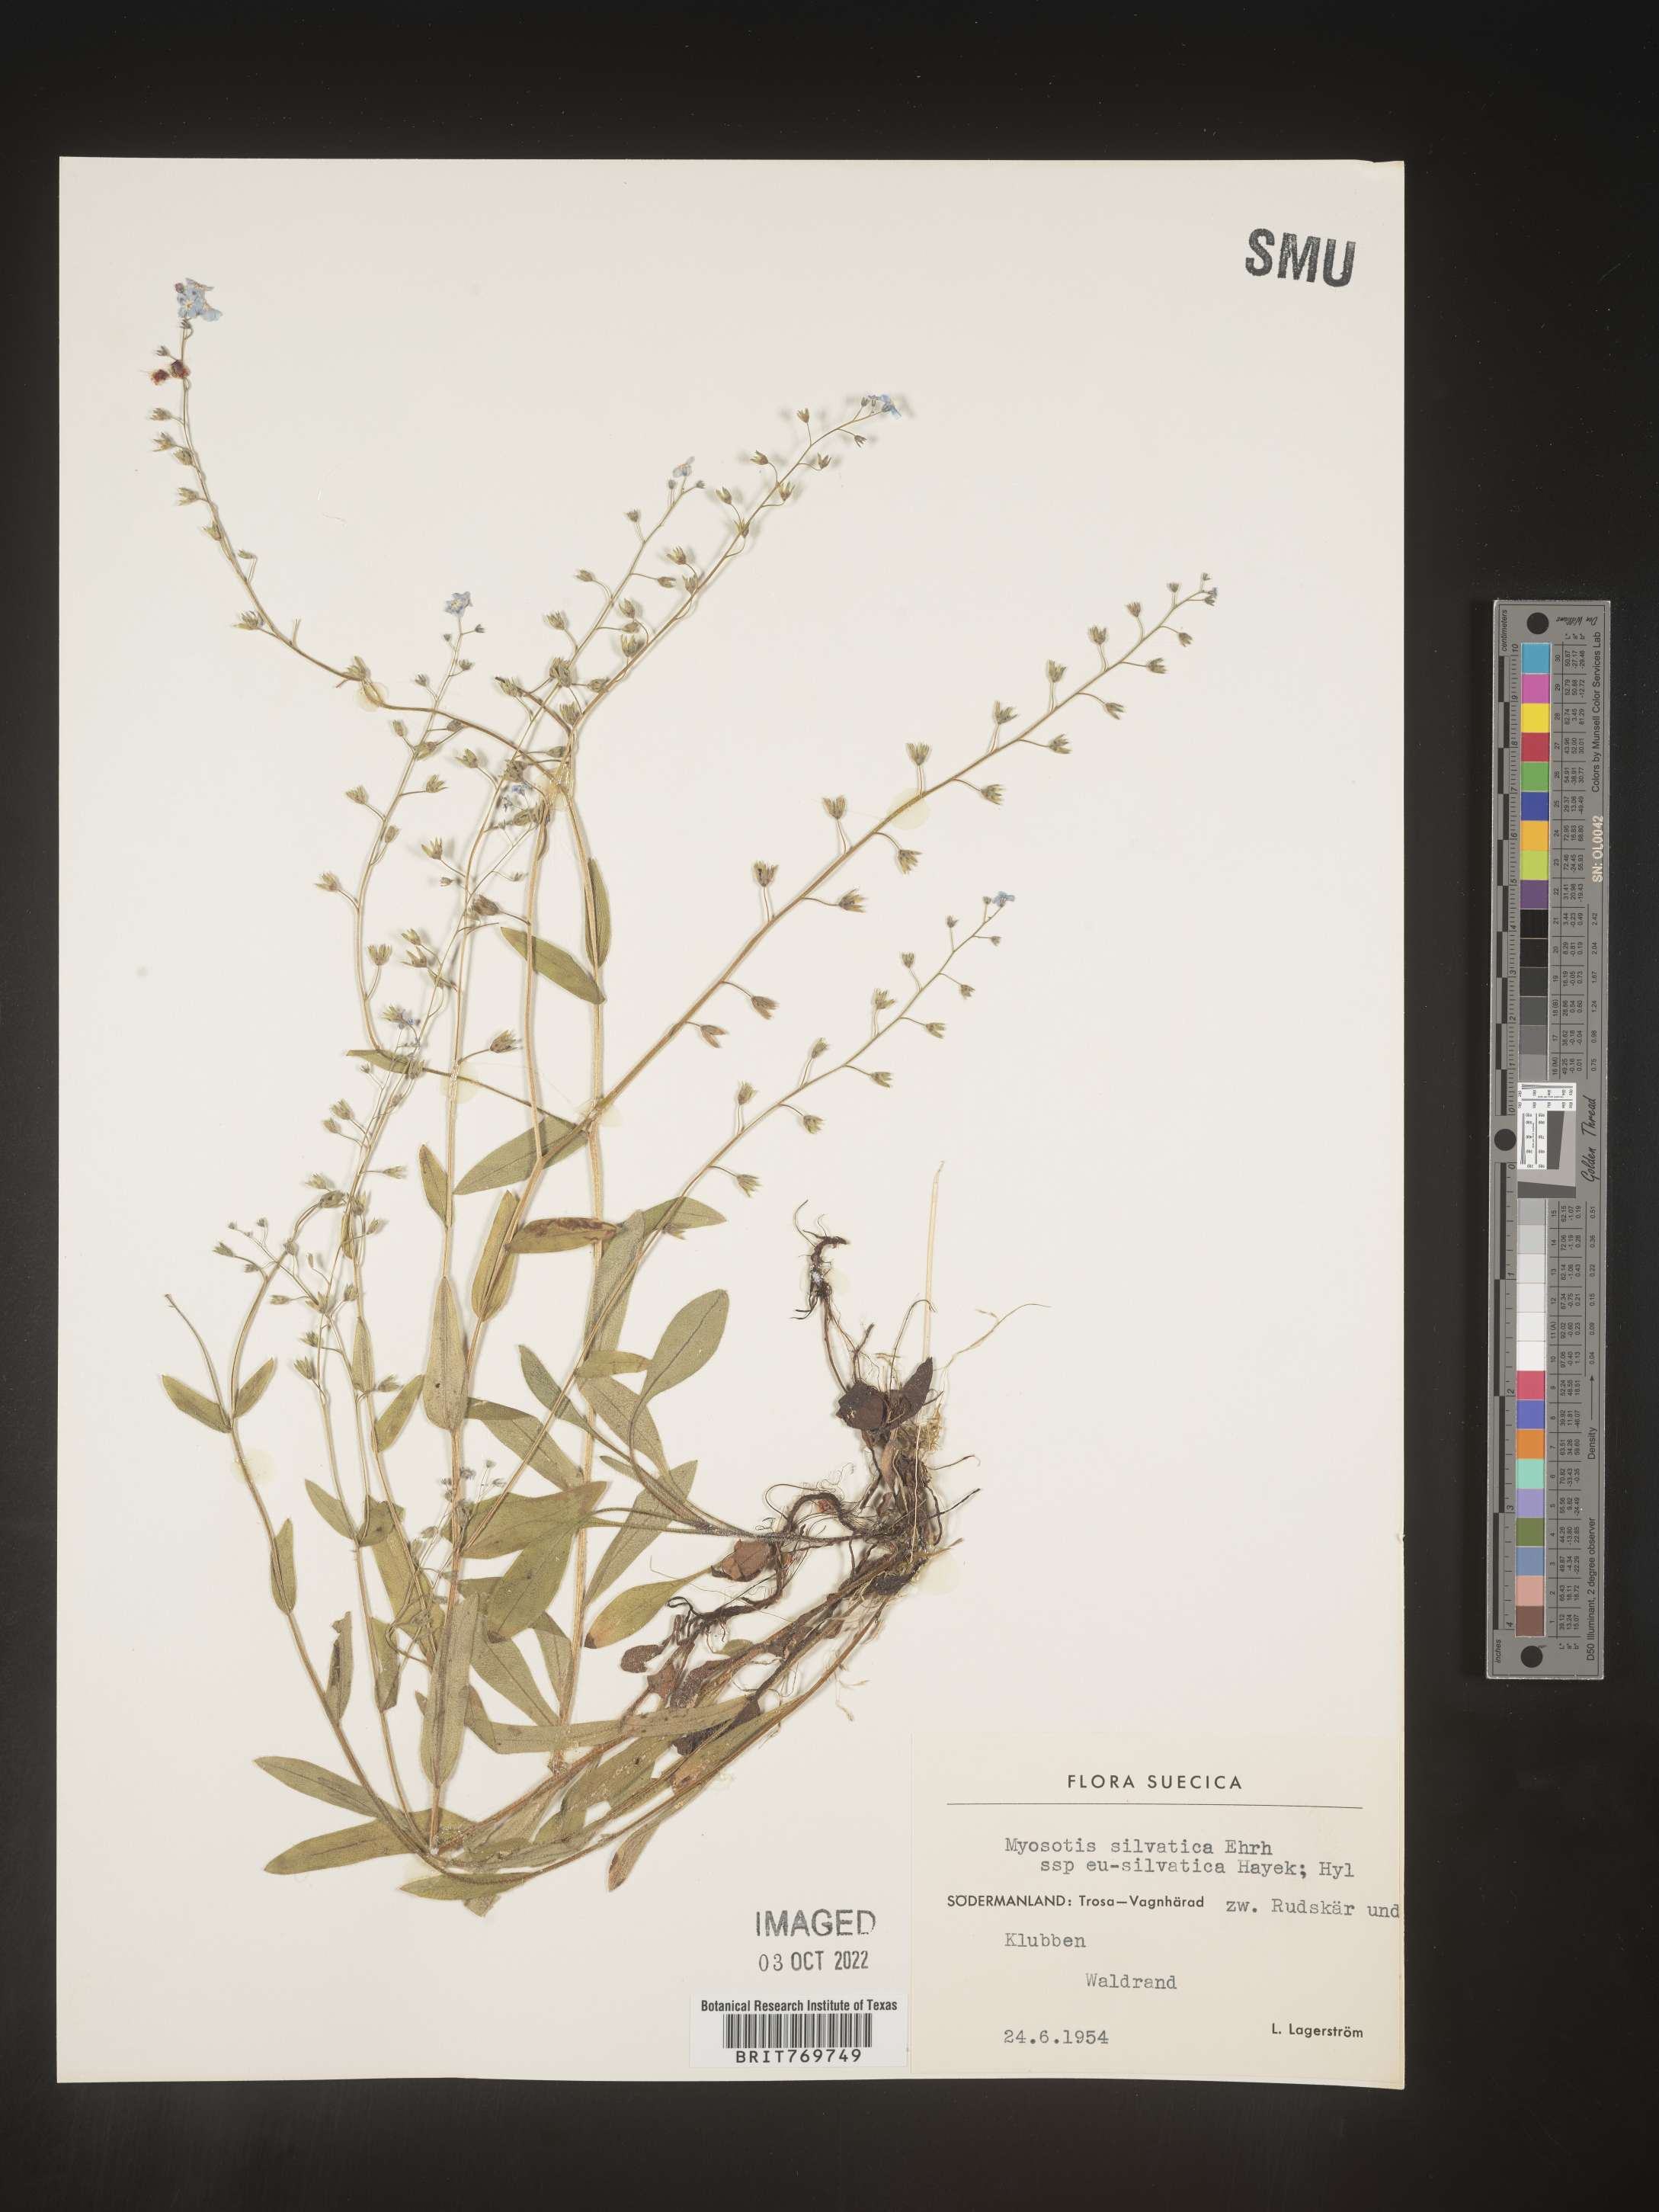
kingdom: Plantae
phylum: Tracheophyta
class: Magnoliopsida
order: Boraginales
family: Boraginaceae
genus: Myosotis
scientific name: Myosotis
